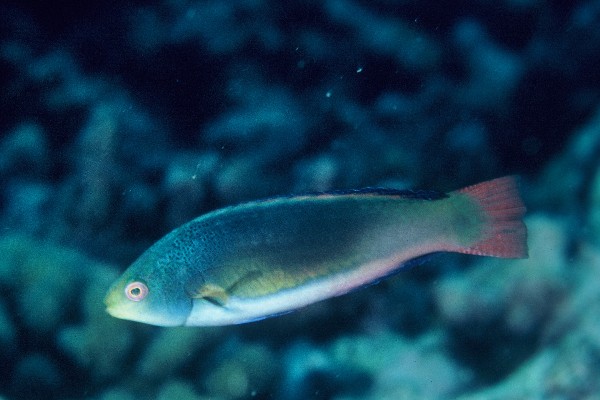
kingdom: Animalia
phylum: Chordata
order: Perciformes
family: Labridae
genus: Cirrhilabrus
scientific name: Cirrhilabrus scottorum
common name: Scott's wrasse
